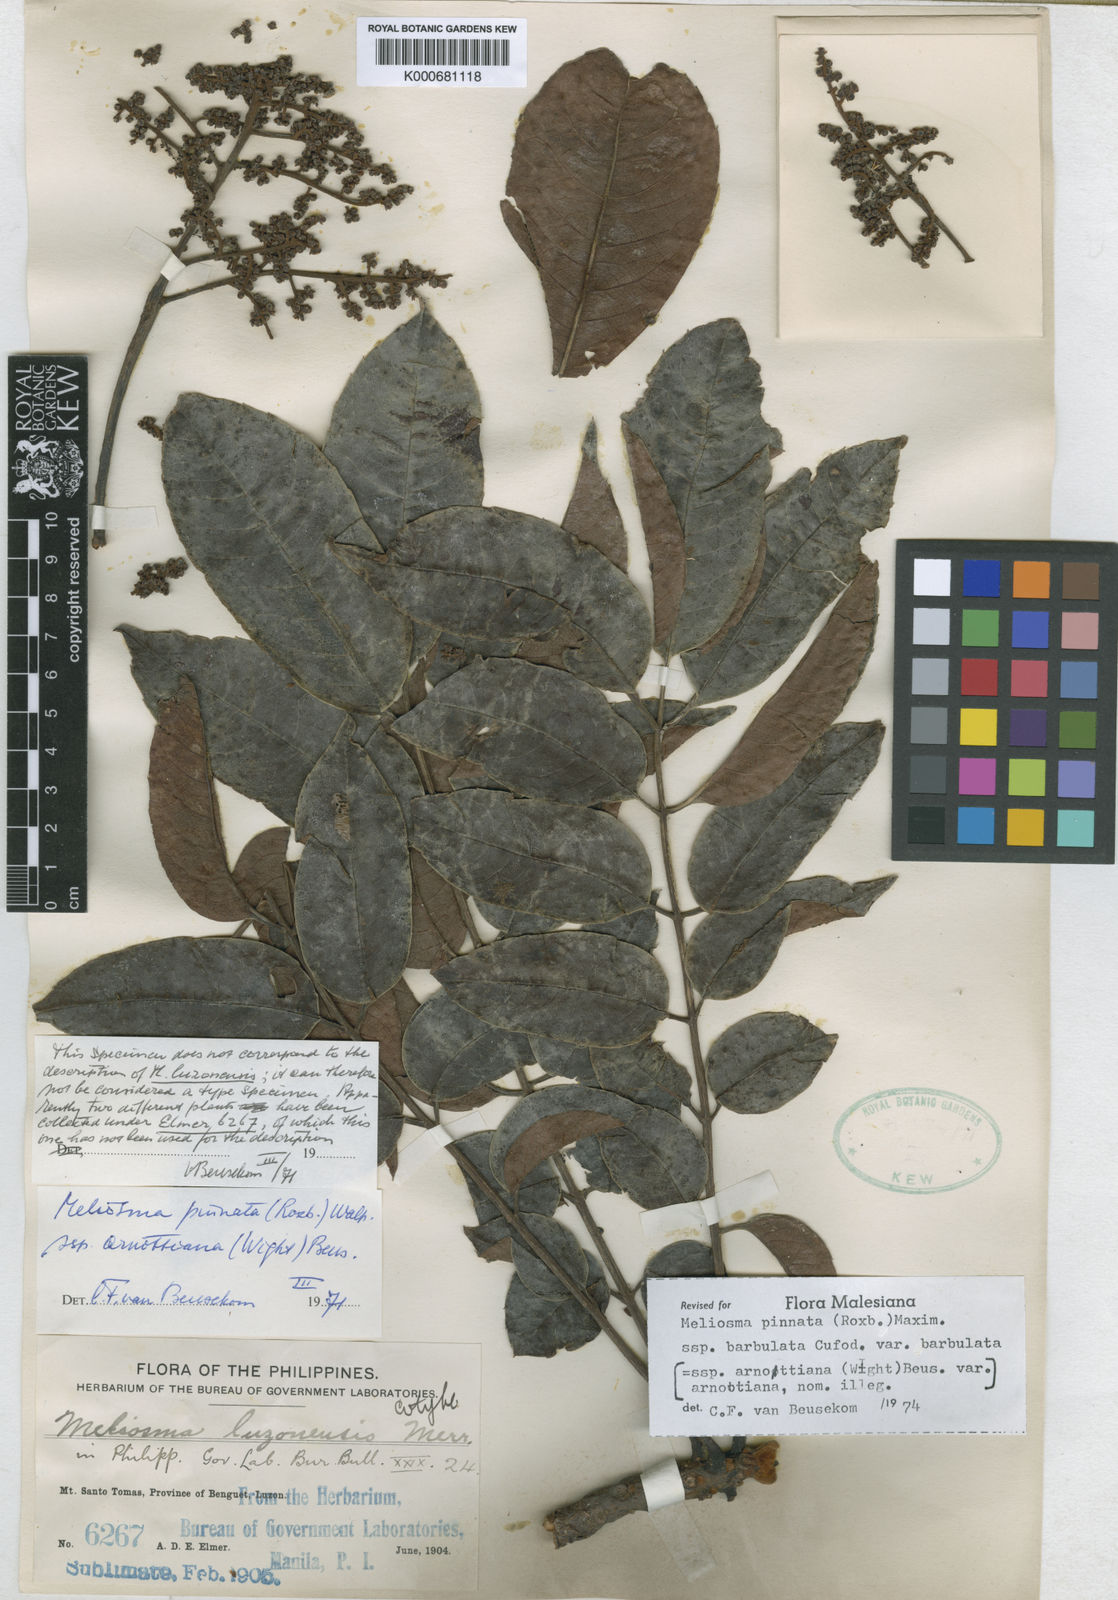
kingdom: Plantae
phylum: Tracheophyta
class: Magnoliopsida
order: Proteales
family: Sabiaceae
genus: Meliosma
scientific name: Meliosma rhoifolia
